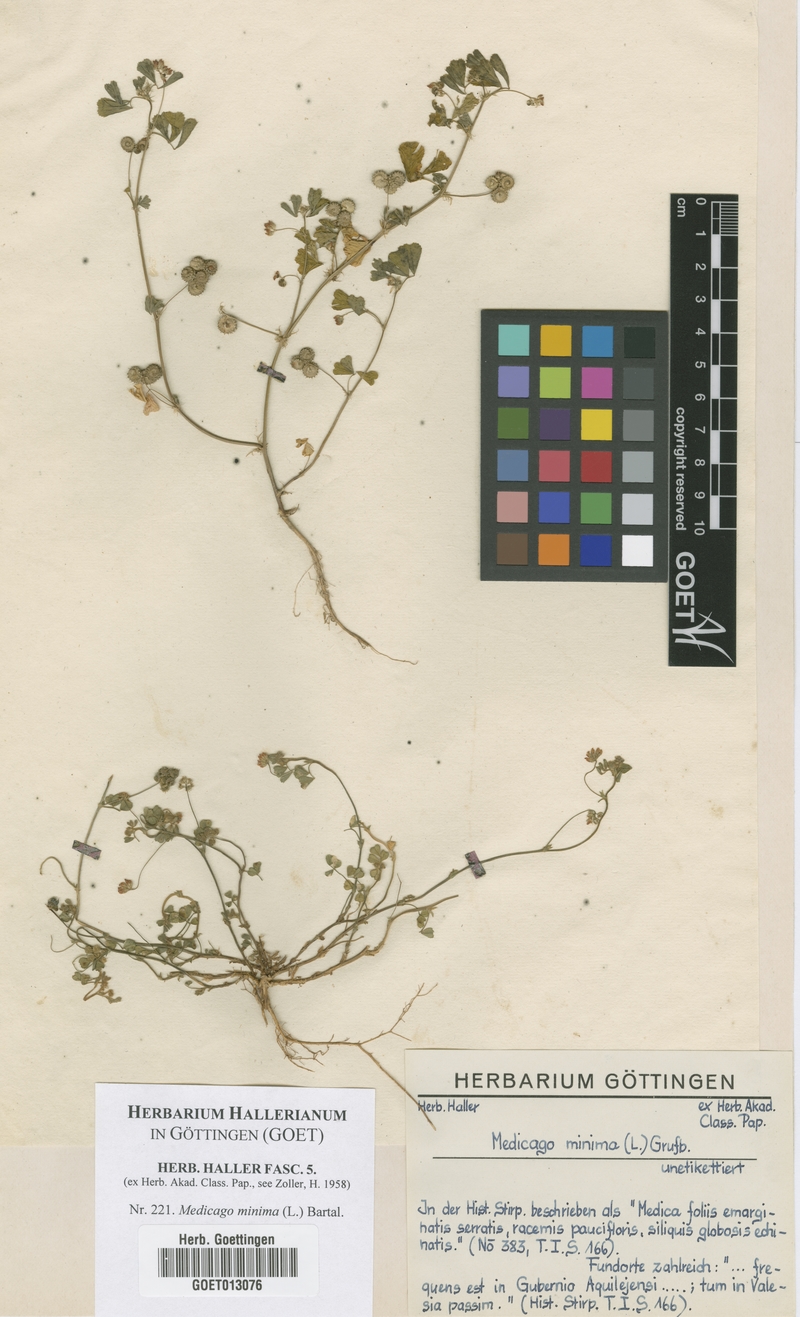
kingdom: Plantae
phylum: Tracheophyta
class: Magnoliopsida
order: Fabales
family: Fabaceae
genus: Medicago
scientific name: Medicago minima
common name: Little bur-clover
